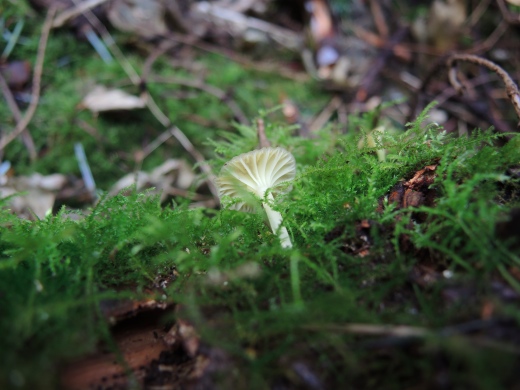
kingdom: Fungi
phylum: Basidiomycota
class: Agaricomycetes
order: Agaricales
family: Hygrophoraceae
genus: Chrysomphalina
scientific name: Chrysomphalina grossula
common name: stød-gyldenblad
